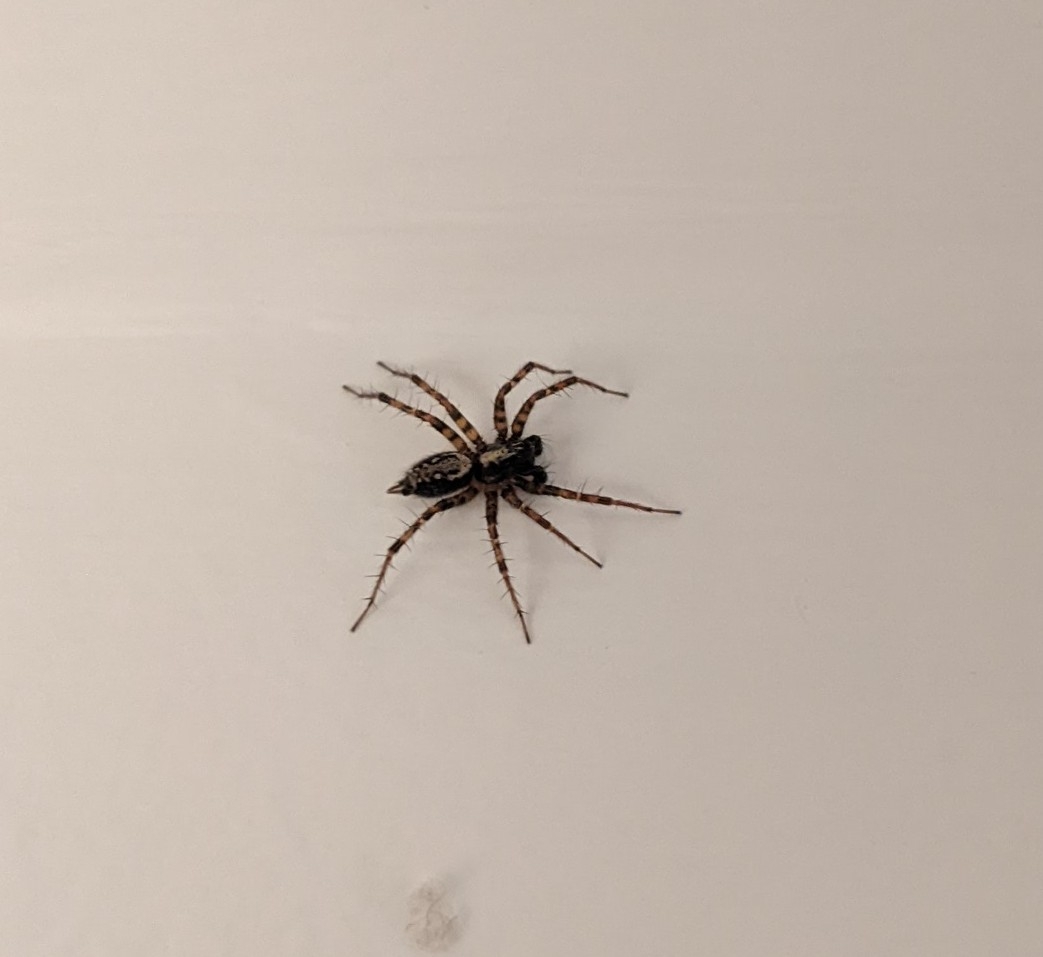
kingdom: Animalia
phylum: Arthropoda
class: Arachnida
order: Araneae
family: Agelenidae
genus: Textrix
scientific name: Textrix denticulata
